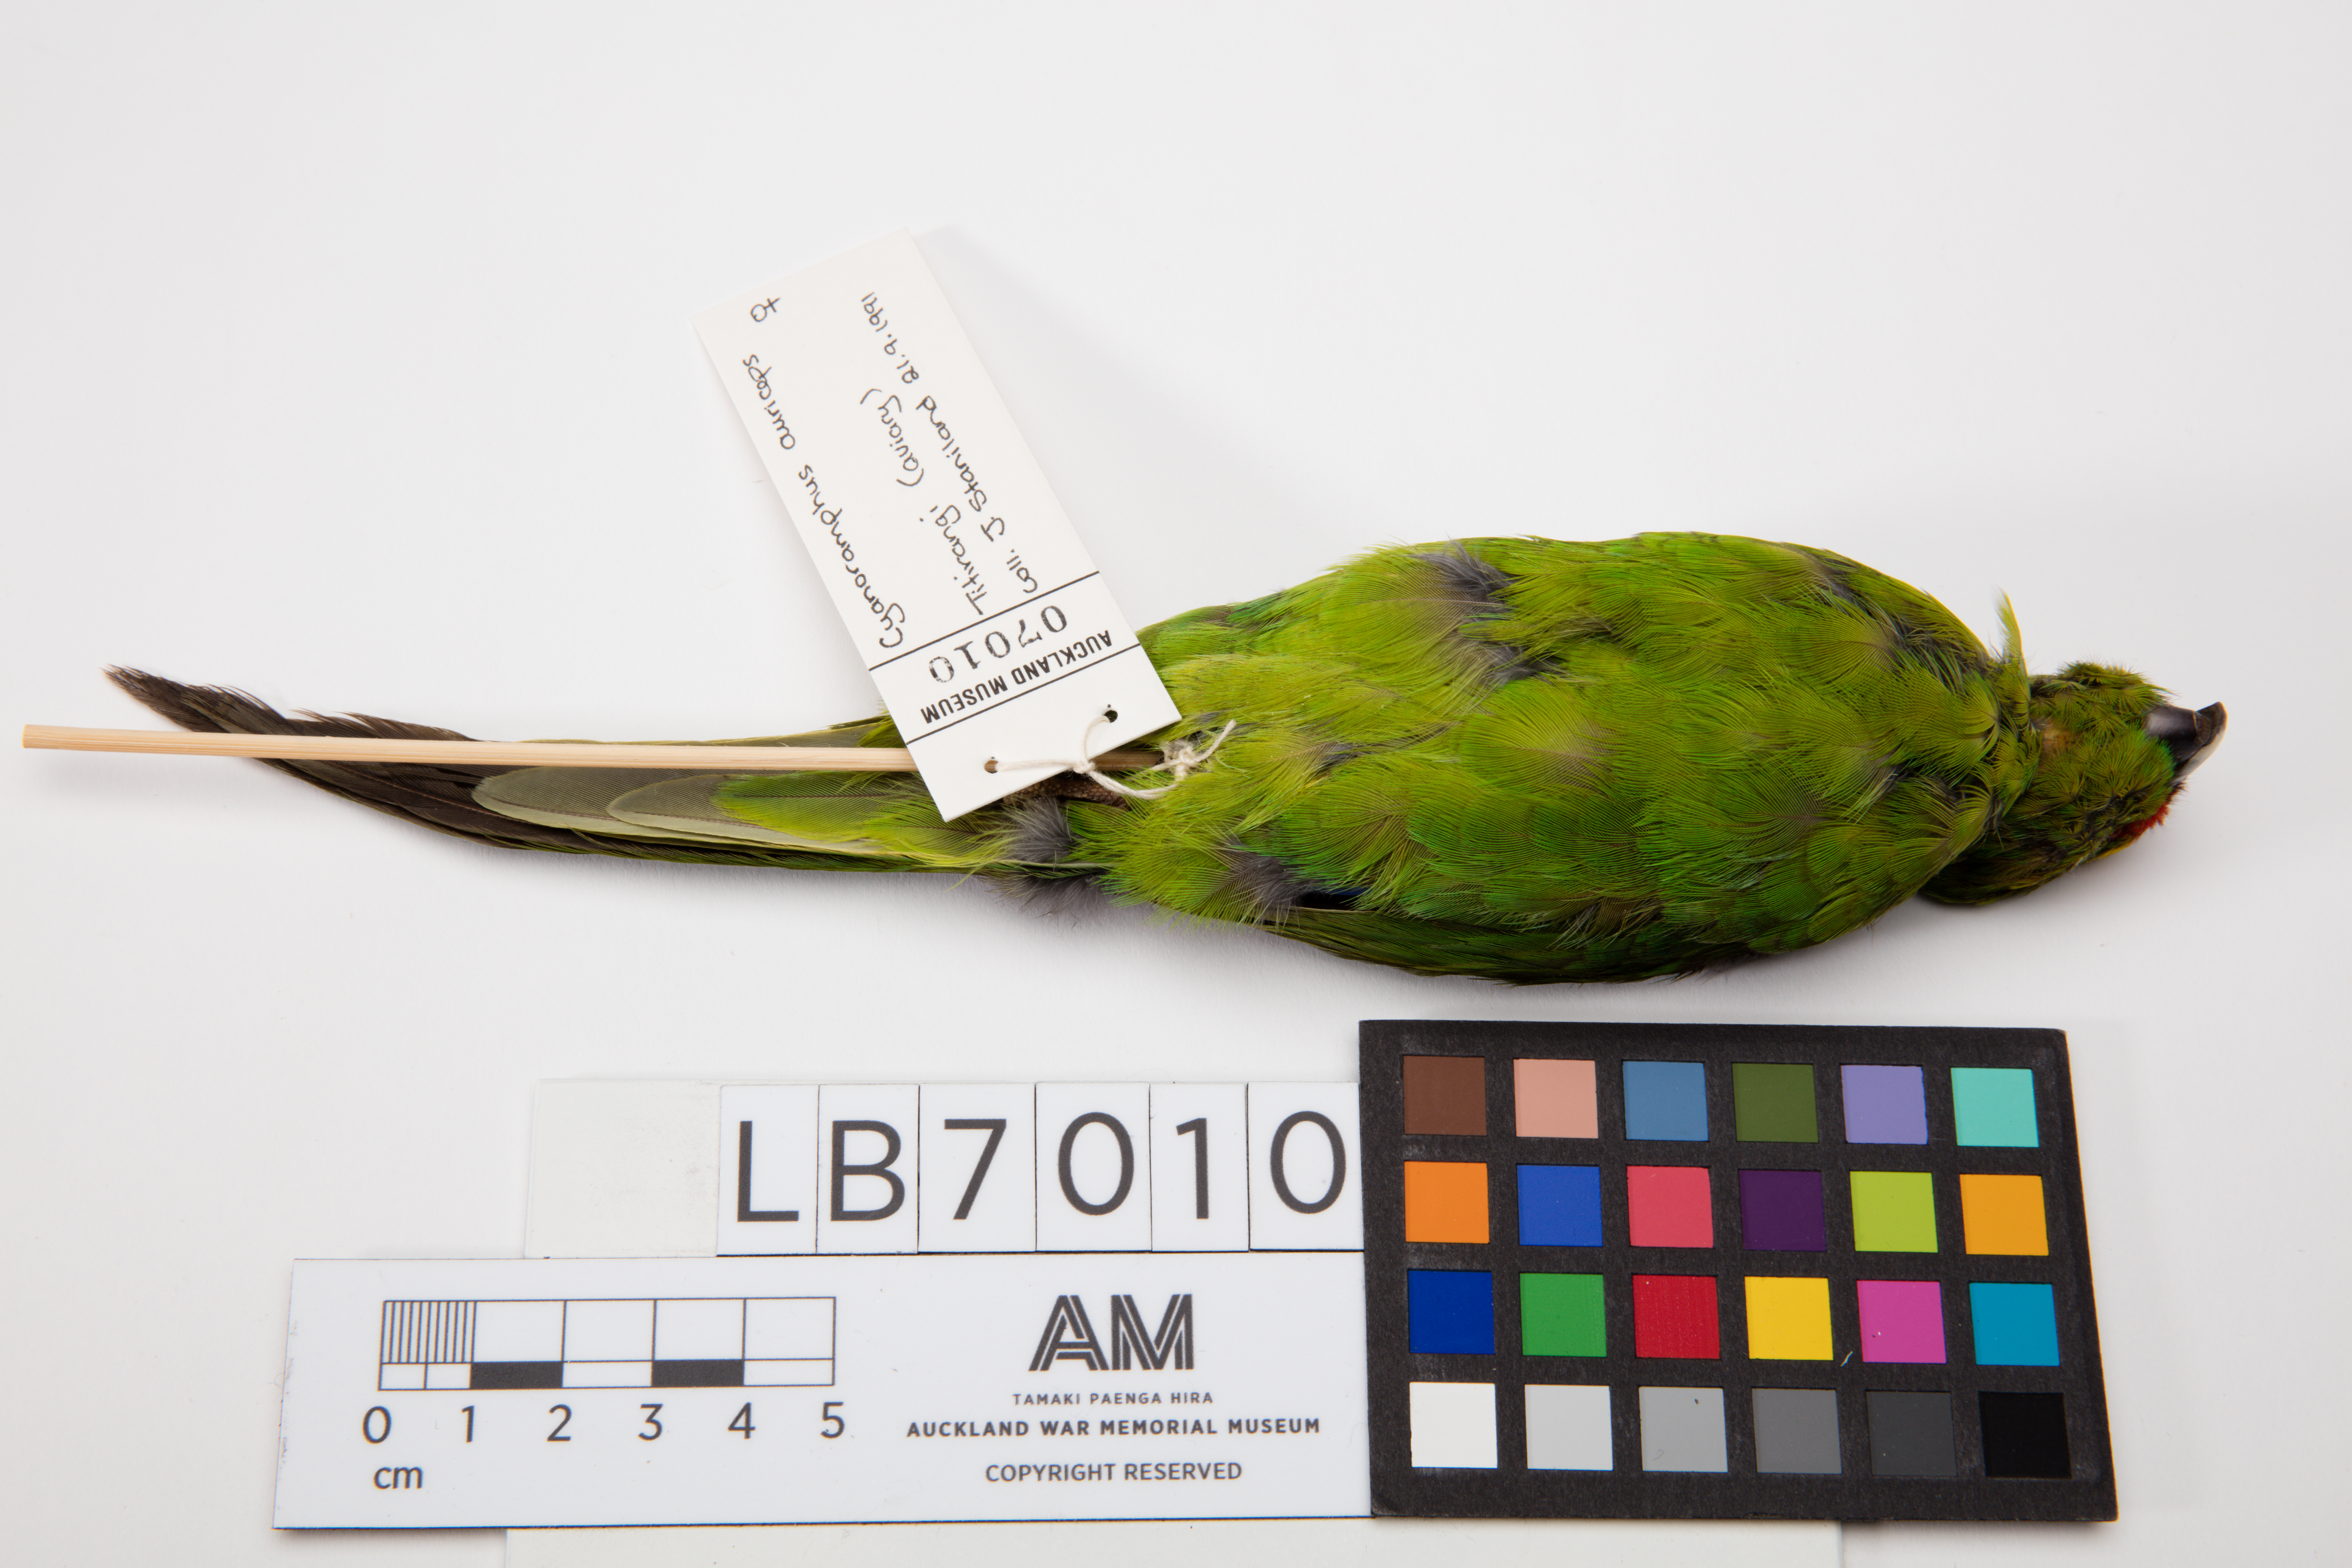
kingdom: Animalia
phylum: Chordata
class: Aves
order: Psittaciformes
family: Psittacidae
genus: Cyanoramphus
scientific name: Cyanoramphus auriceps
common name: Yellow-crowned parakeet
